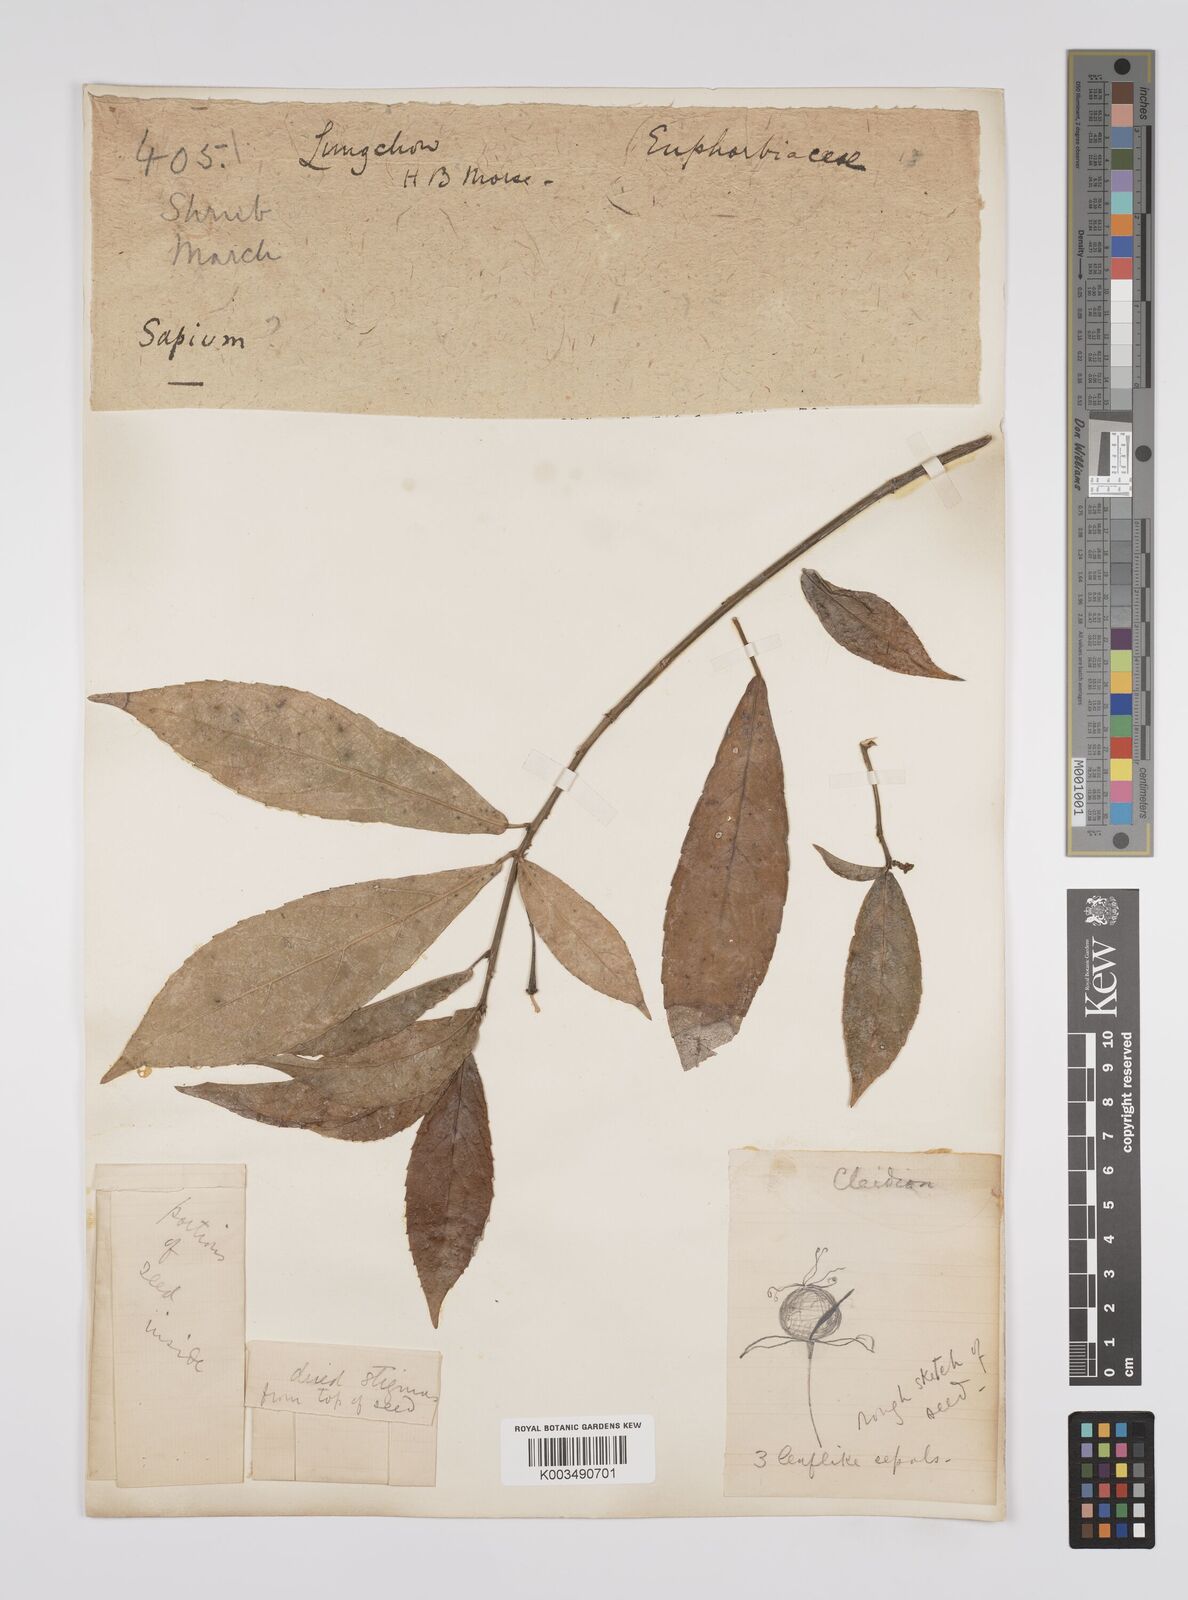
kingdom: Plantae
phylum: Tracheophyta
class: Magnoliopsida
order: Malpighiales
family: Euphorbiaceae
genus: Cleidion
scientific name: Cleidion brevipetiolatum
